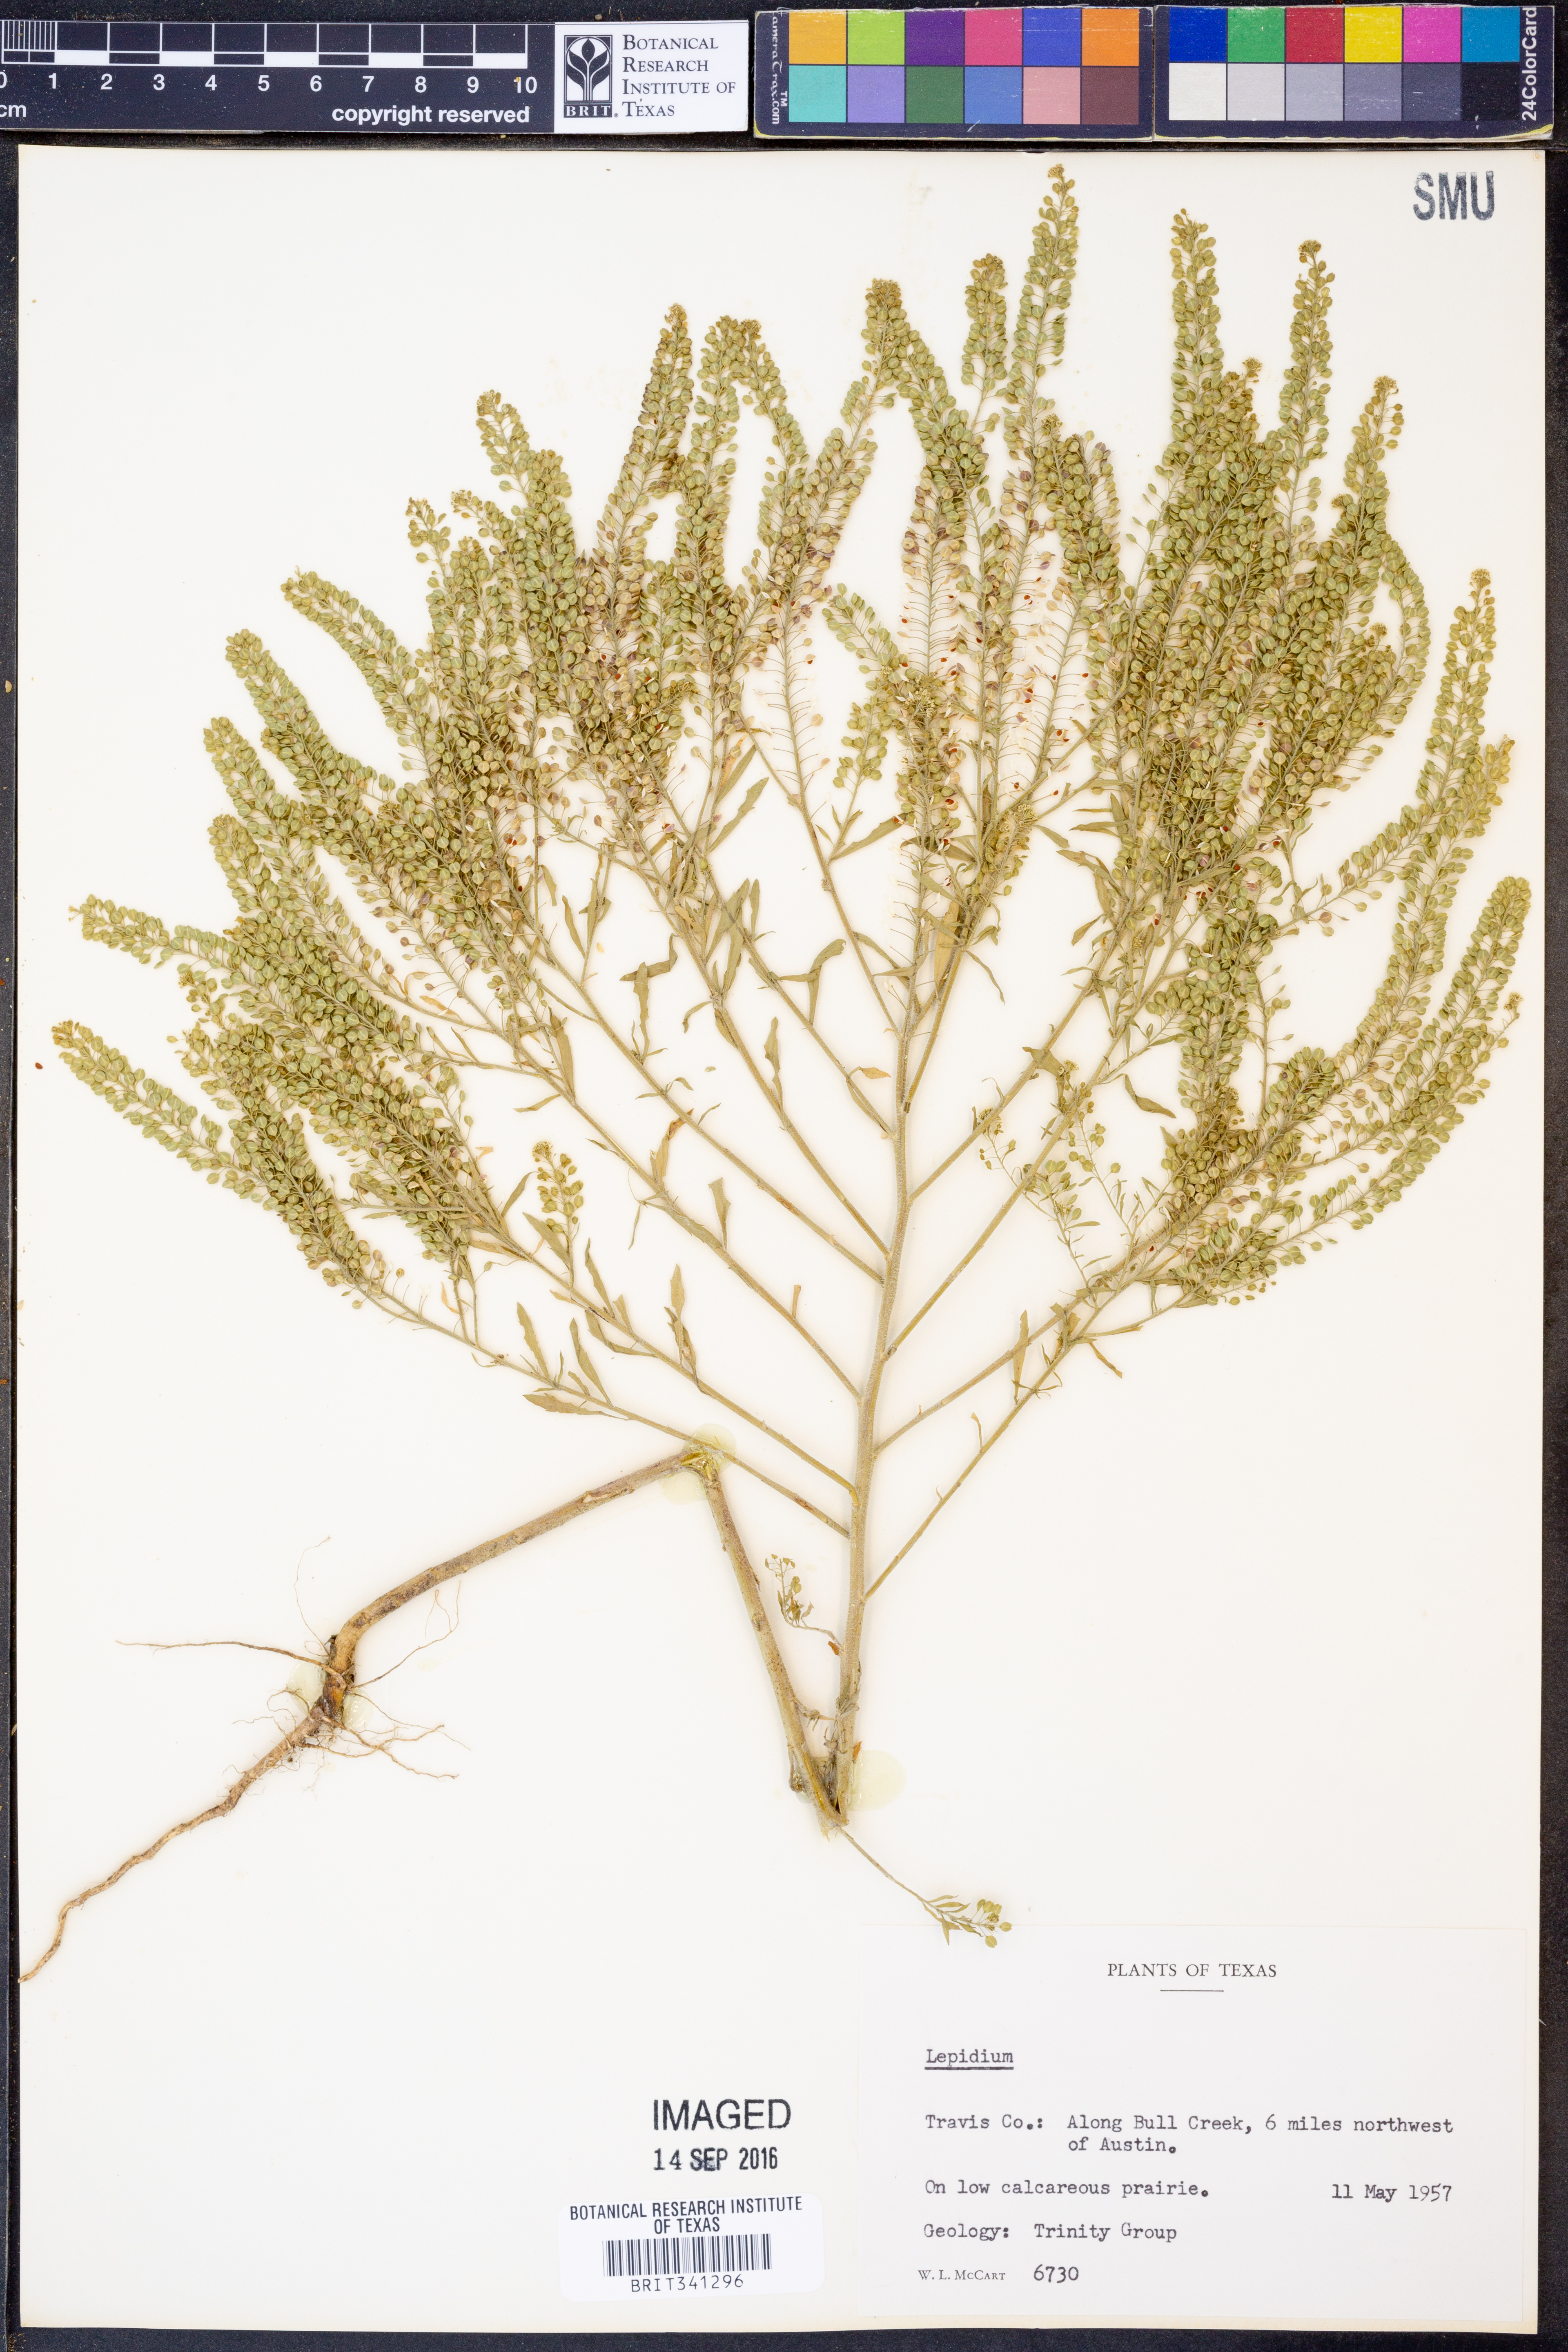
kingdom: Plantae
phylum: Tracheophyta
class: Magnoliopsida
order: Brassicales
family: Brassicaceae
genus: Lepidium
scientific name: Lepidium
